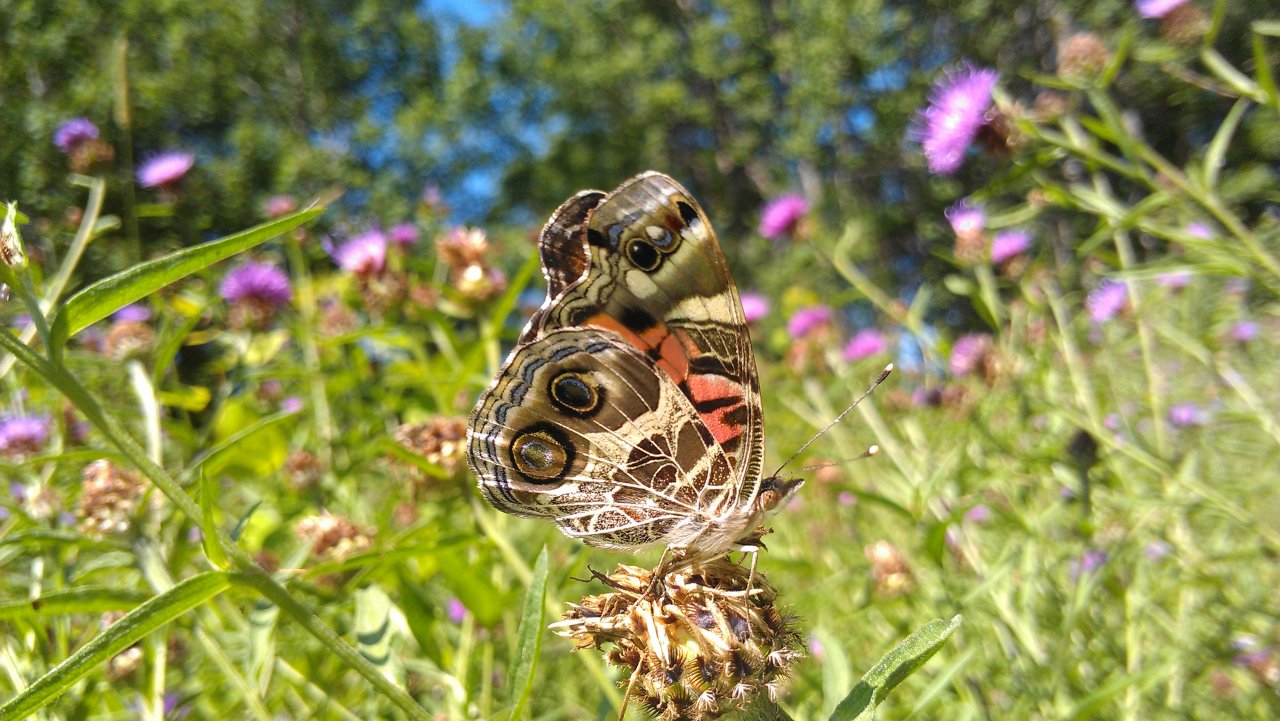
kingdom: Animalia
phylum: Arthropoda
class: Insecta
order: Lepidoptera
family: Nymphalidae
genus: Vanessa
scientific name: Vanessa virginiensis
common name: American Lady
